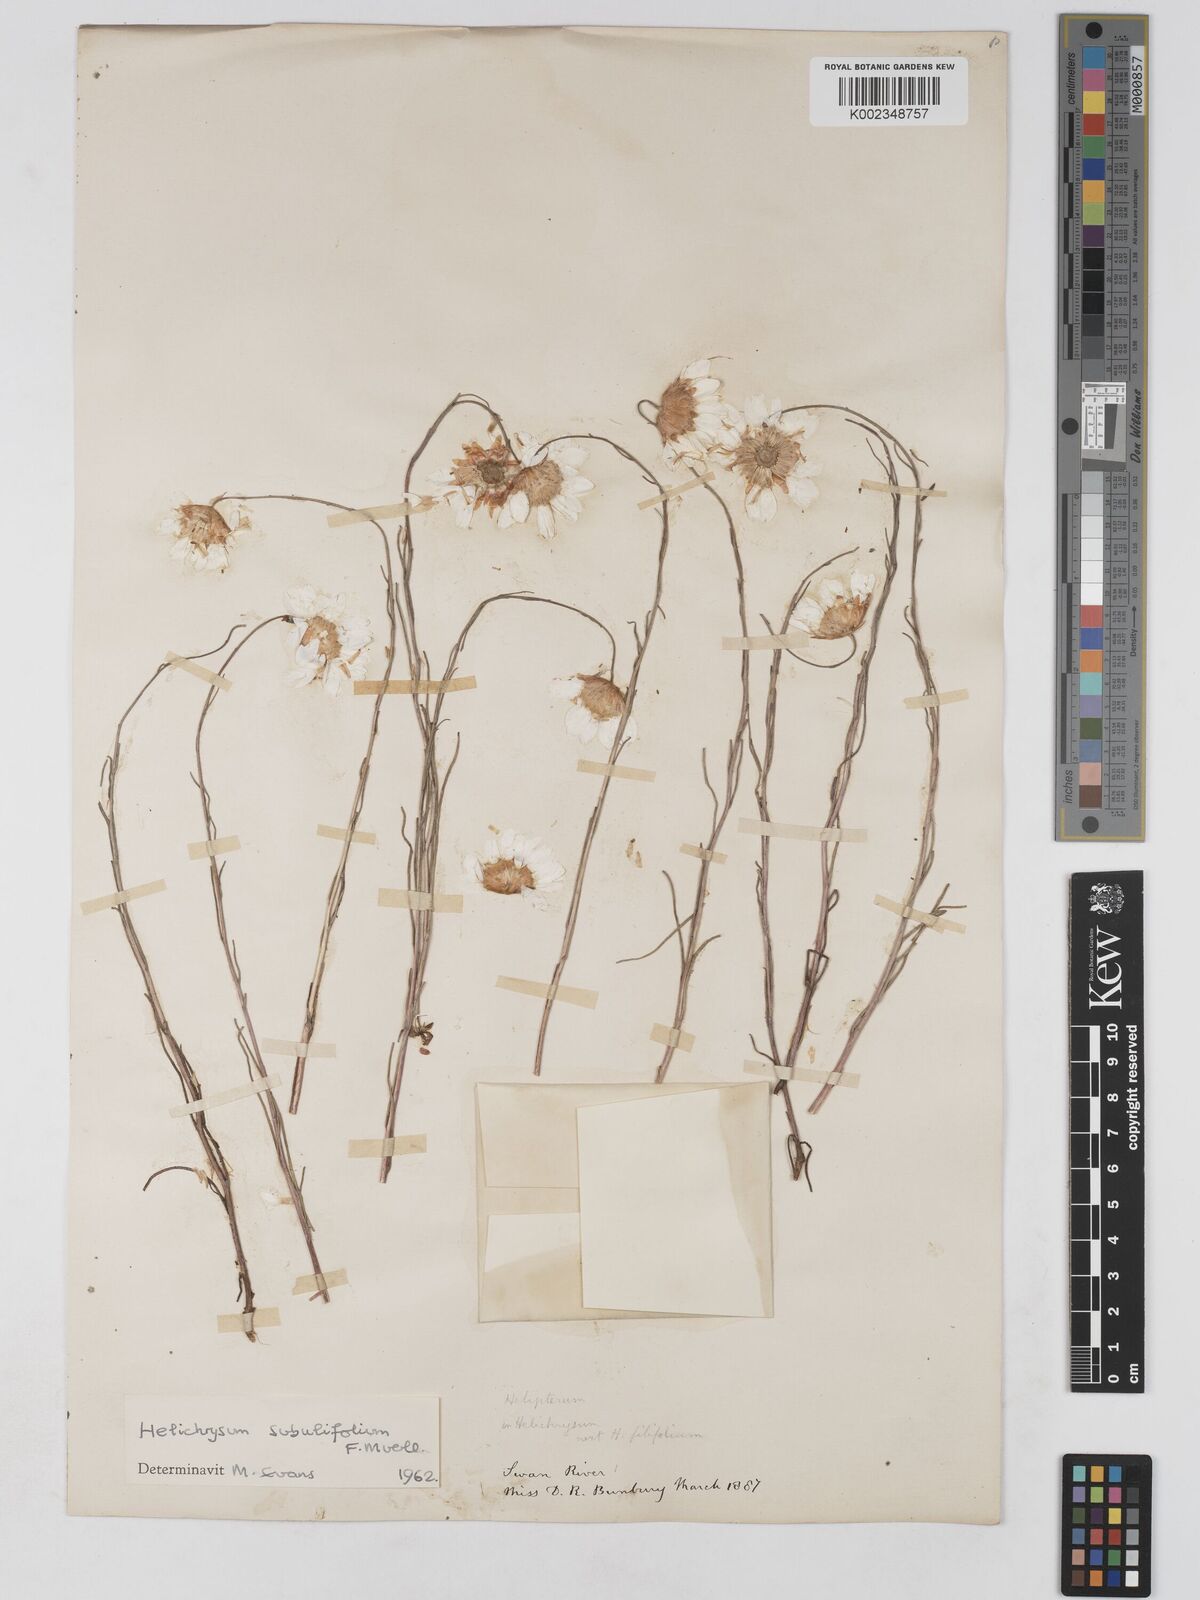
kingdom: Plantae
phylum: Tracheophyta
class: Magnoliopsida
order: Asterales
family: Asteraceae
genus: Schoenia
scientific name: Schoenia filifolia
